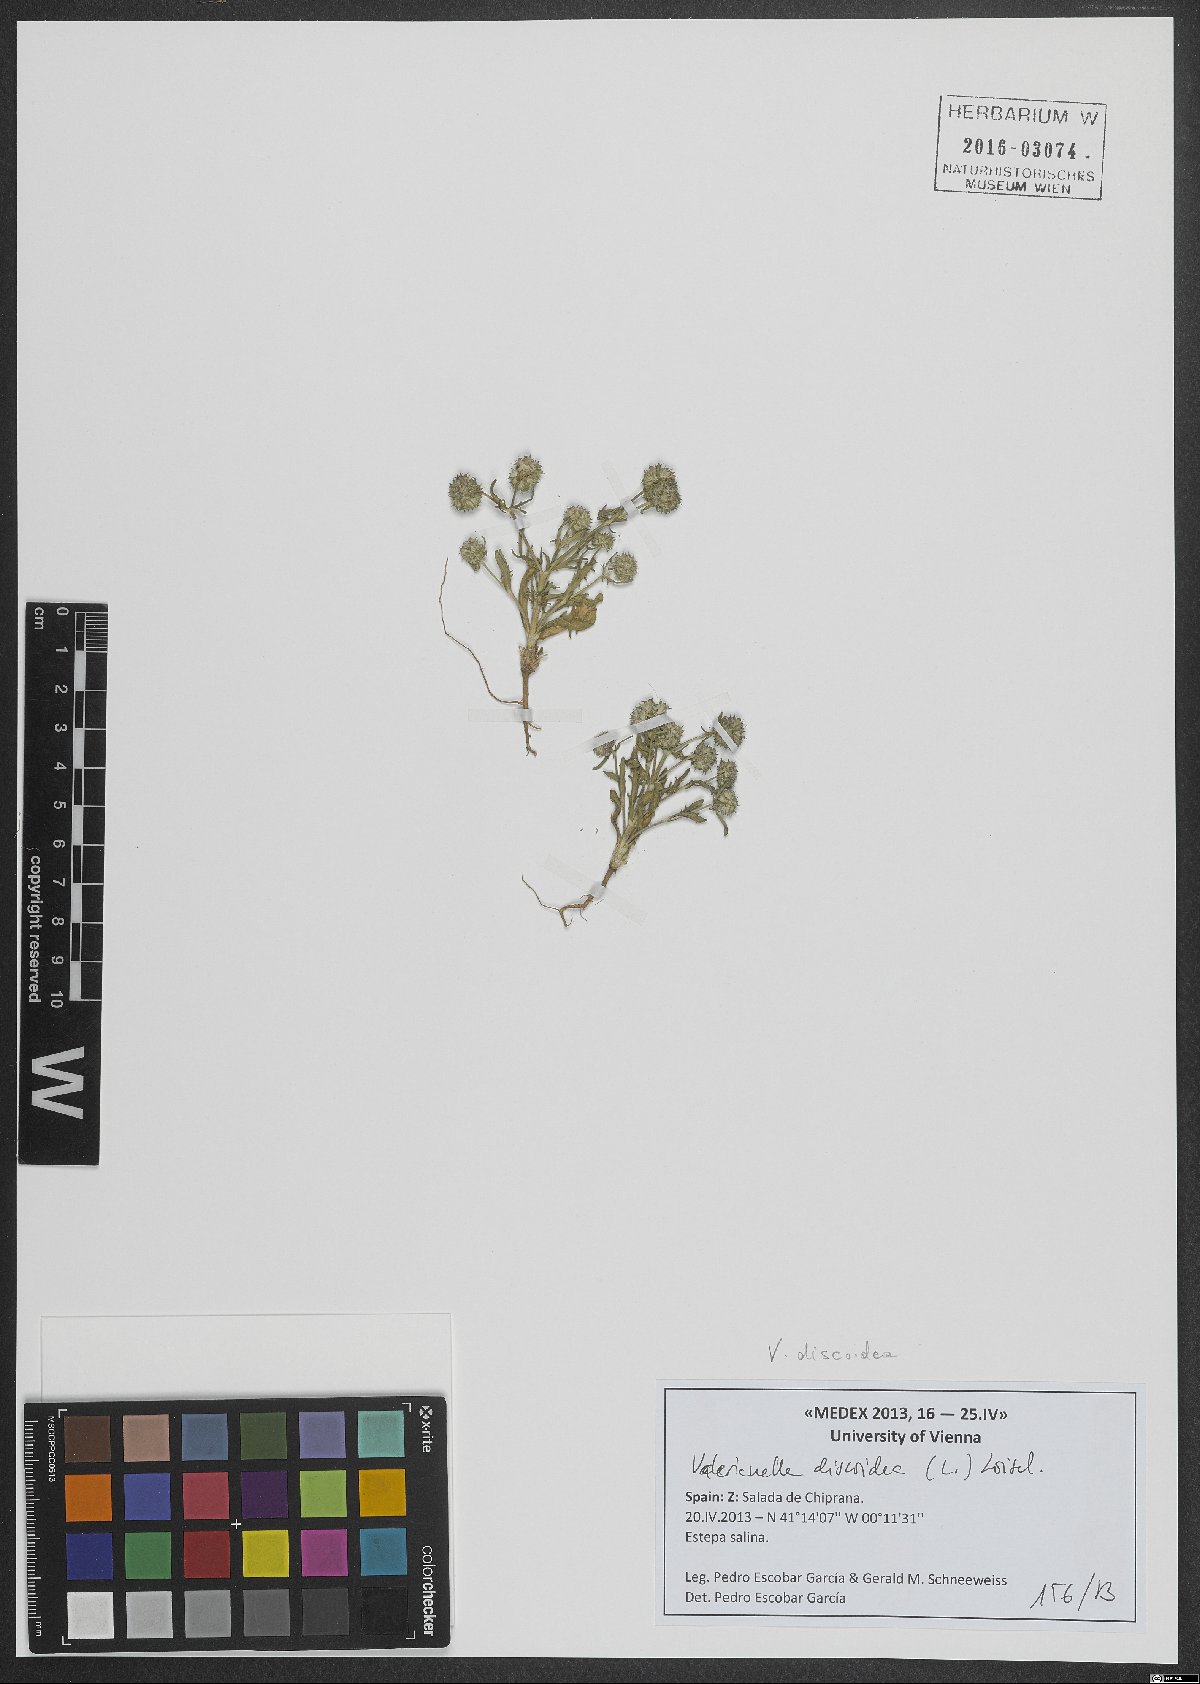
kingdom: Plantae
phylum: Tracheophyta
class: Magnoliopsida
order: Dipsacales
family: Caprifoliaceae
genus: Valerianella
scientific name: Valerianella discoidea
